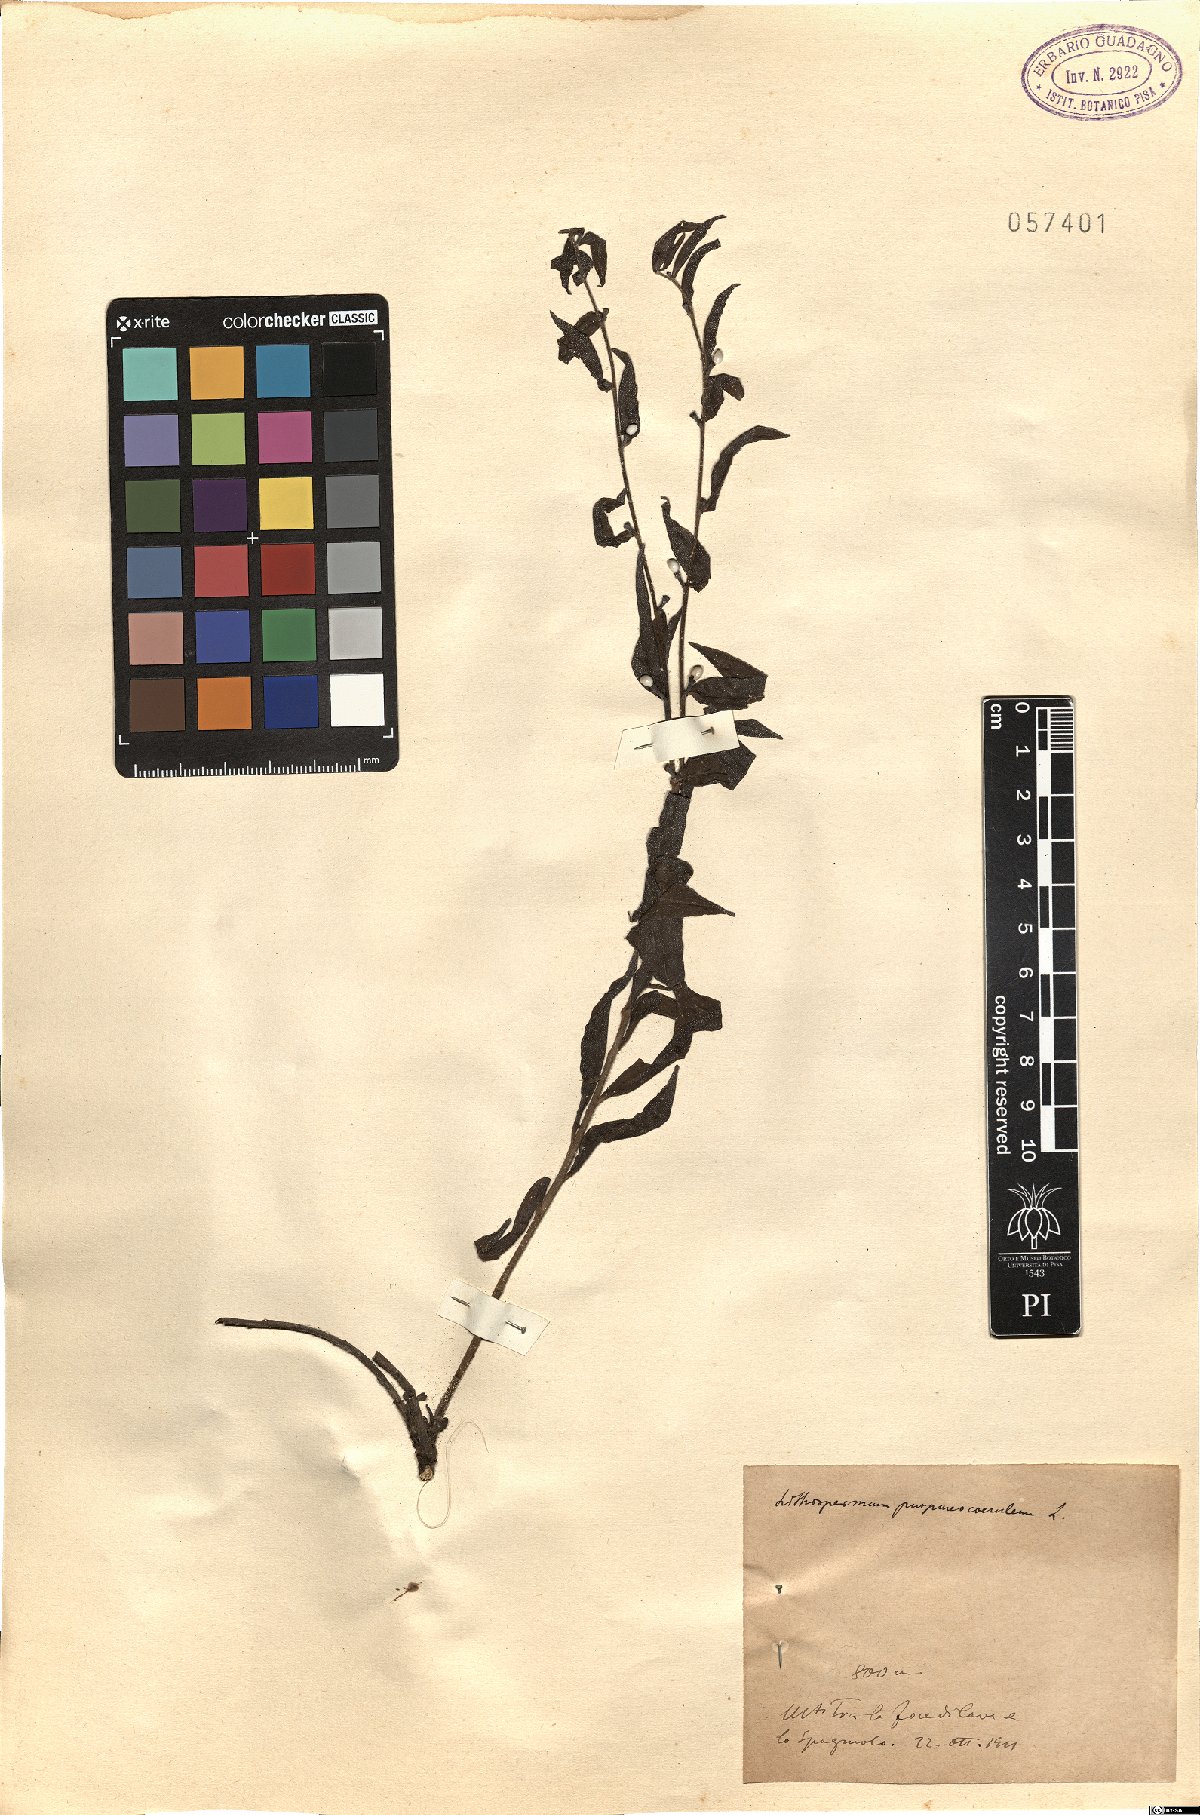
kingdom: Plantae
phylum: Tracheophyta
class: Magnoliopsida
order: Boraginales
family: Boraginaceae
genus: Aegonychon
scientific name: Aegonychon purpurocaeruleum
